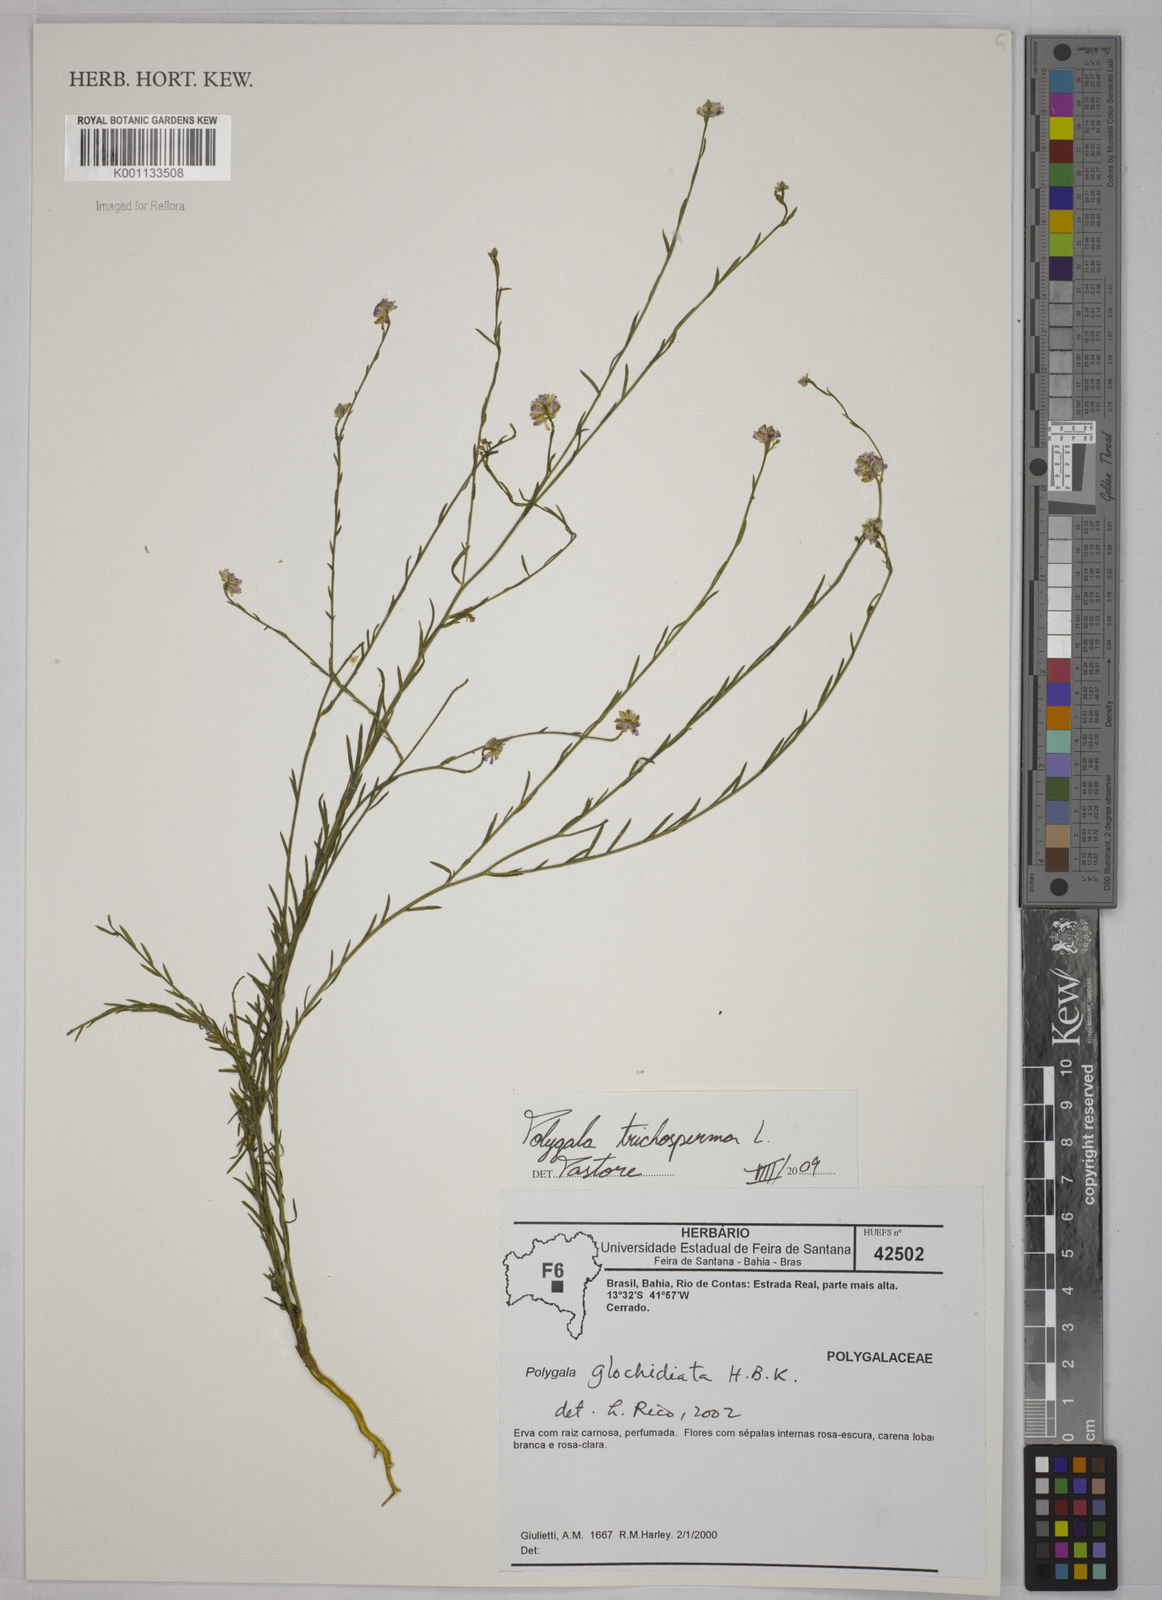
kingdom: Plantae
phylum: Tracheophyta
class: Magnoliopsida
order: Fabales
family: Polygalaceae
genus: Polygala
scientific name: Polygala trichosperma
